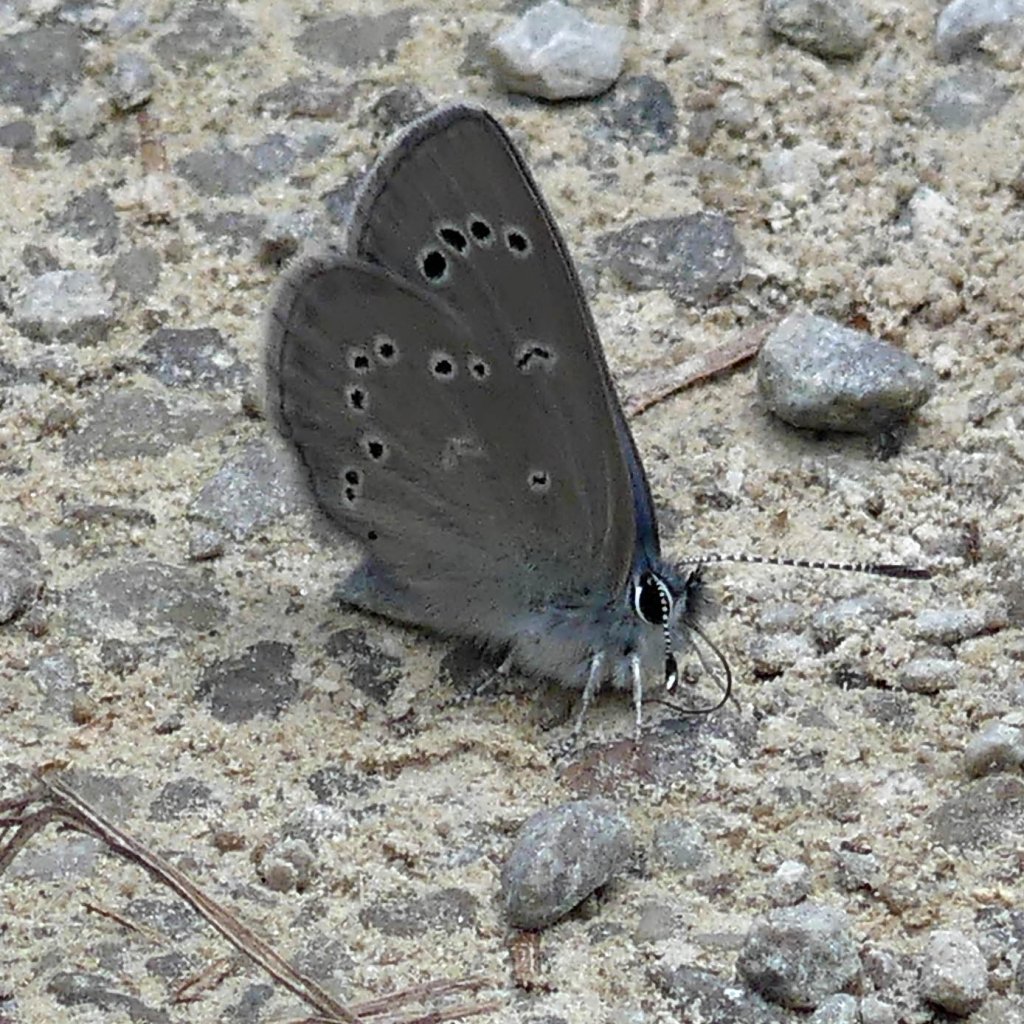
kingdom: Animalia
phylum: Arthropoda
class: Insecta
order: Lepidoptera
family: Lycaenidae
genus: Glaucopsyche
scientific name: Glaucopsyche lygdamus
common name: Silvery Blue
